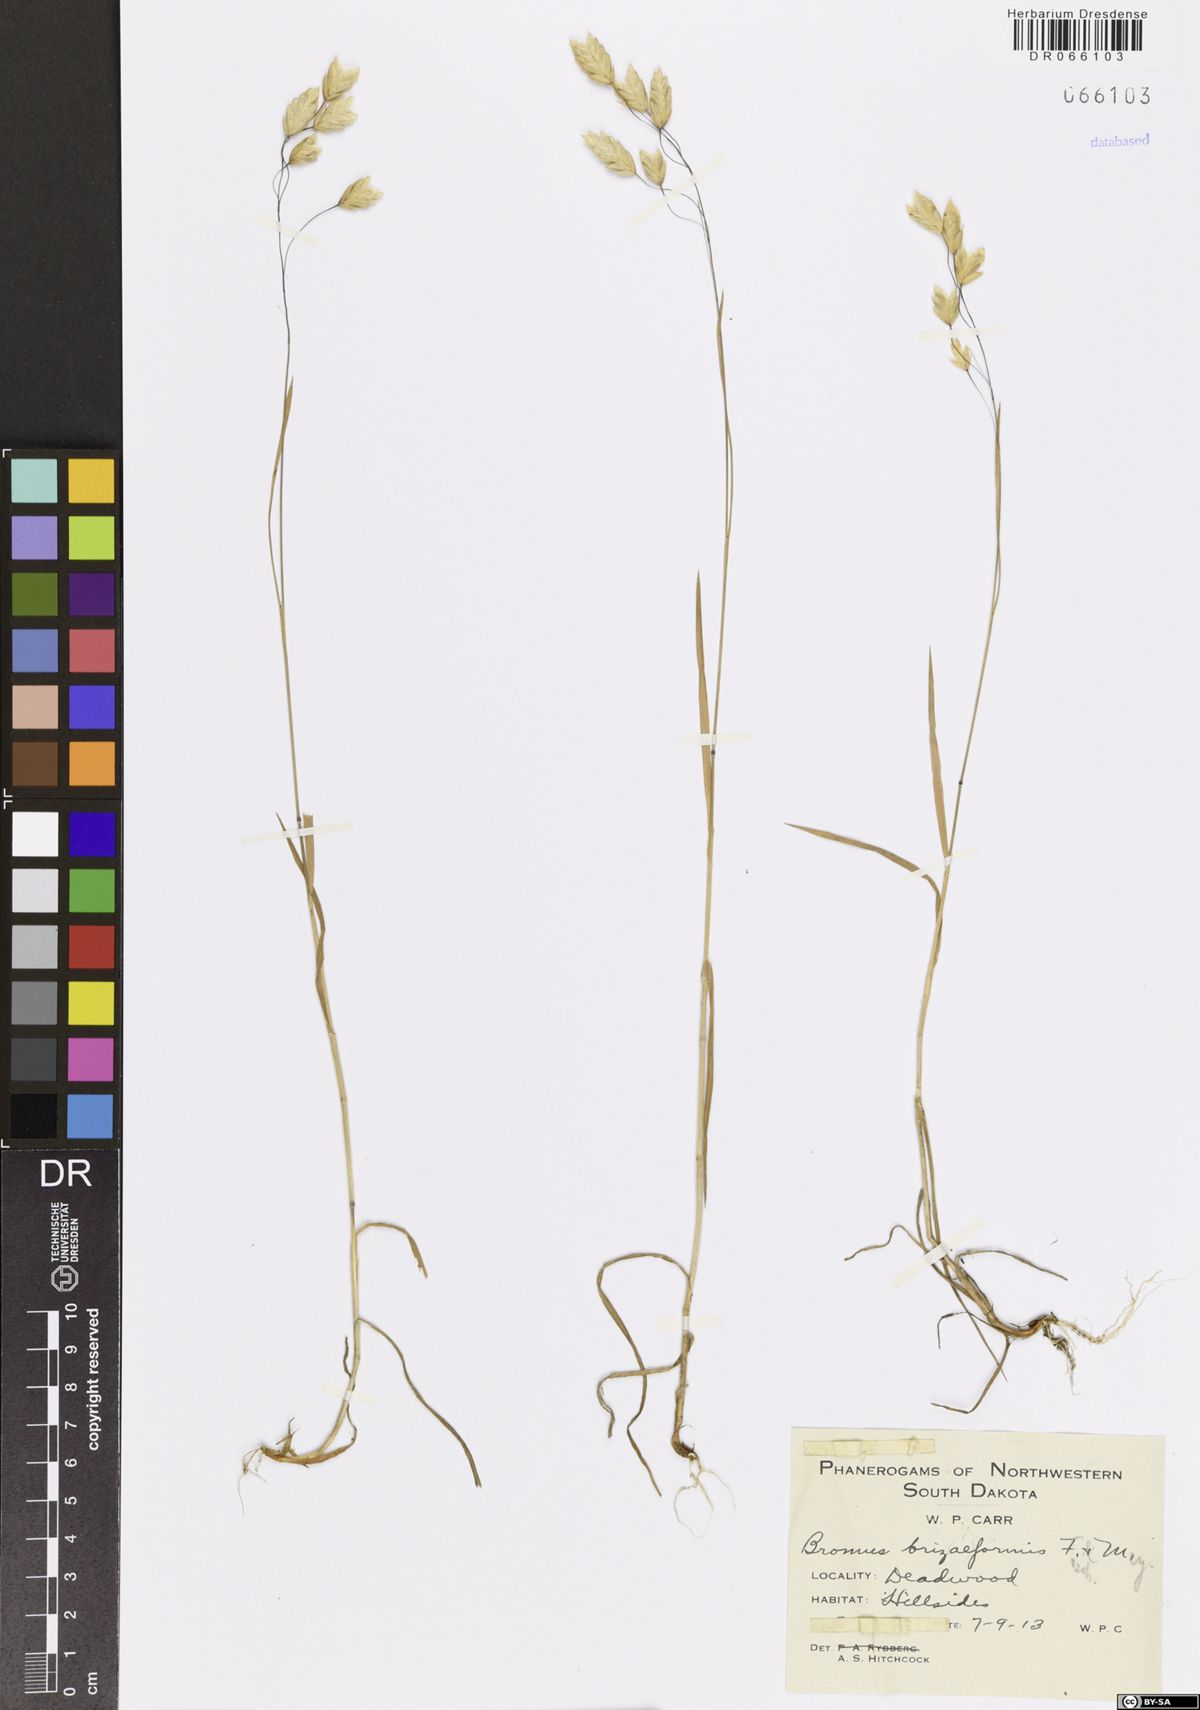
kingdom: Plantae
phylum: Tracheophyta
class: Liliopsida
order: Poales
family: Poaceae
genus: Bromus
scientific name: Bromus briziformis
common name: Rattlesnake brome
